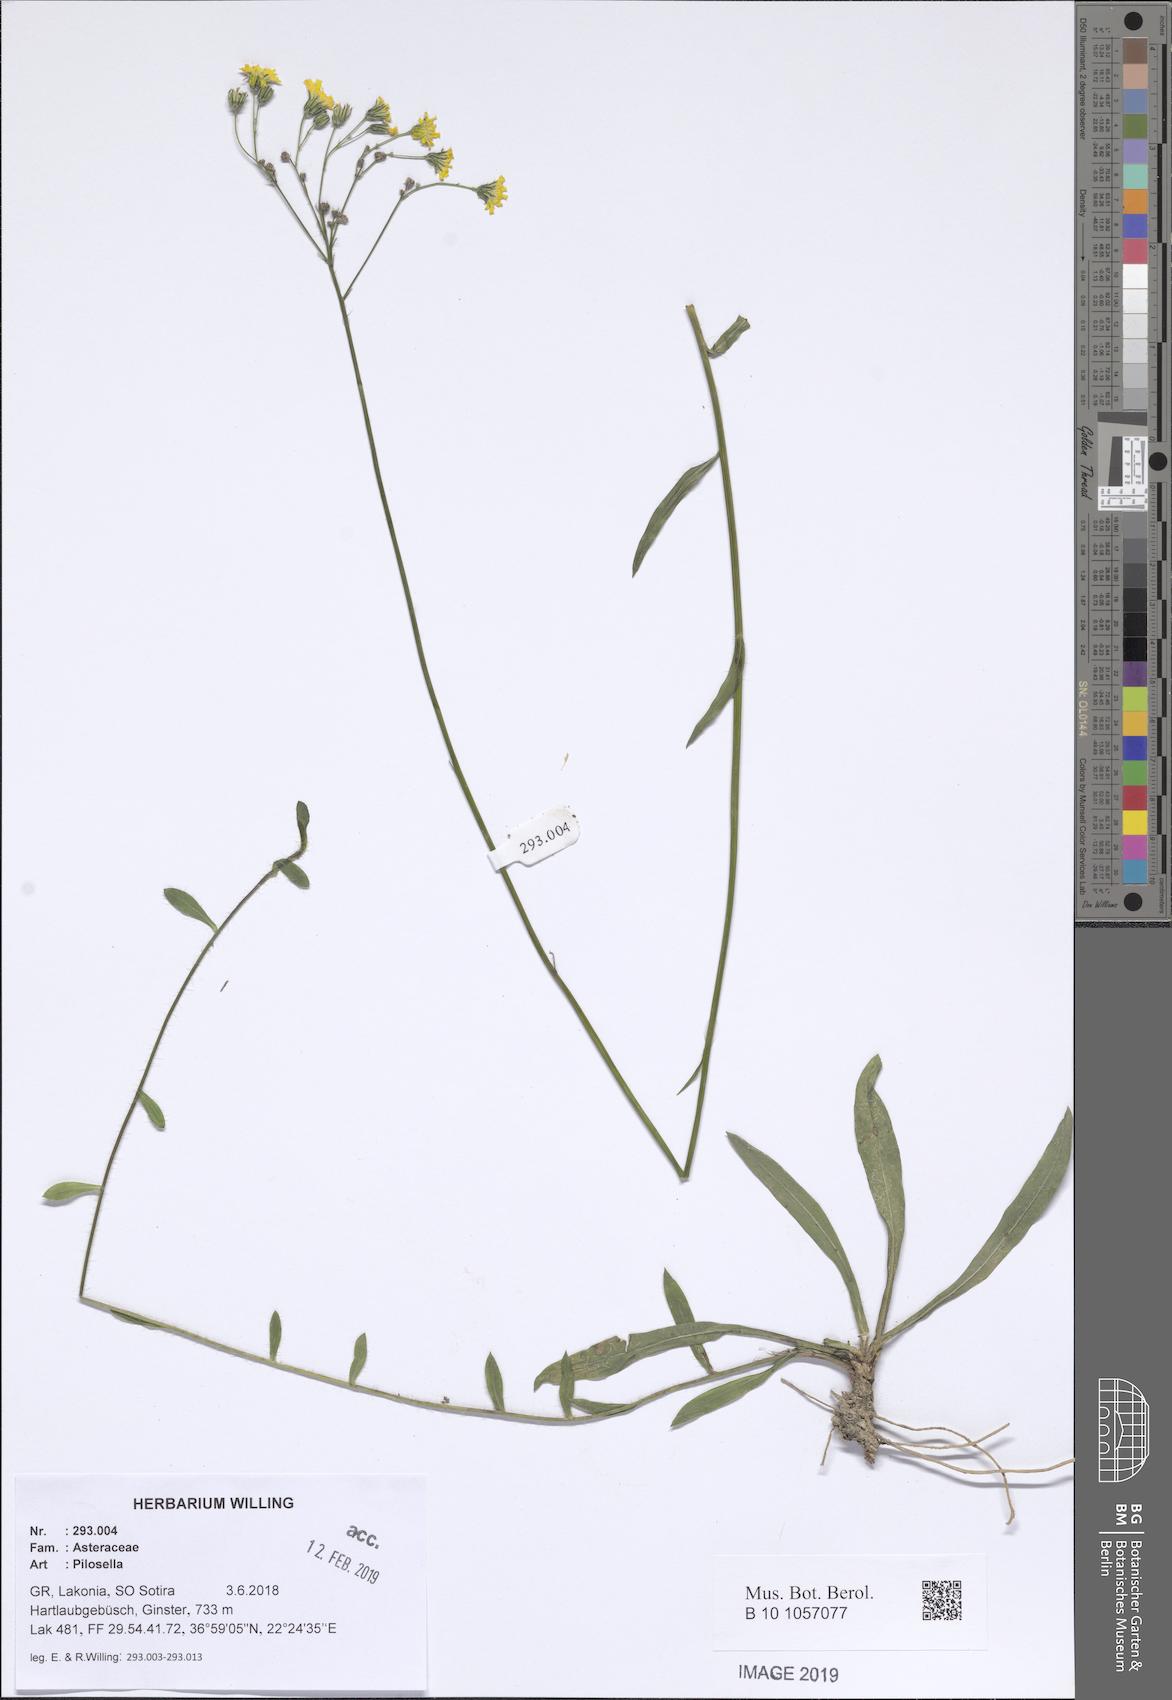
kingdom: Plantae
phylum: Tracheophyta
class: Magnoliopsida
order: Asterales
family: Asteraceae
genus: Pilosella
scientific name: Pilosella
